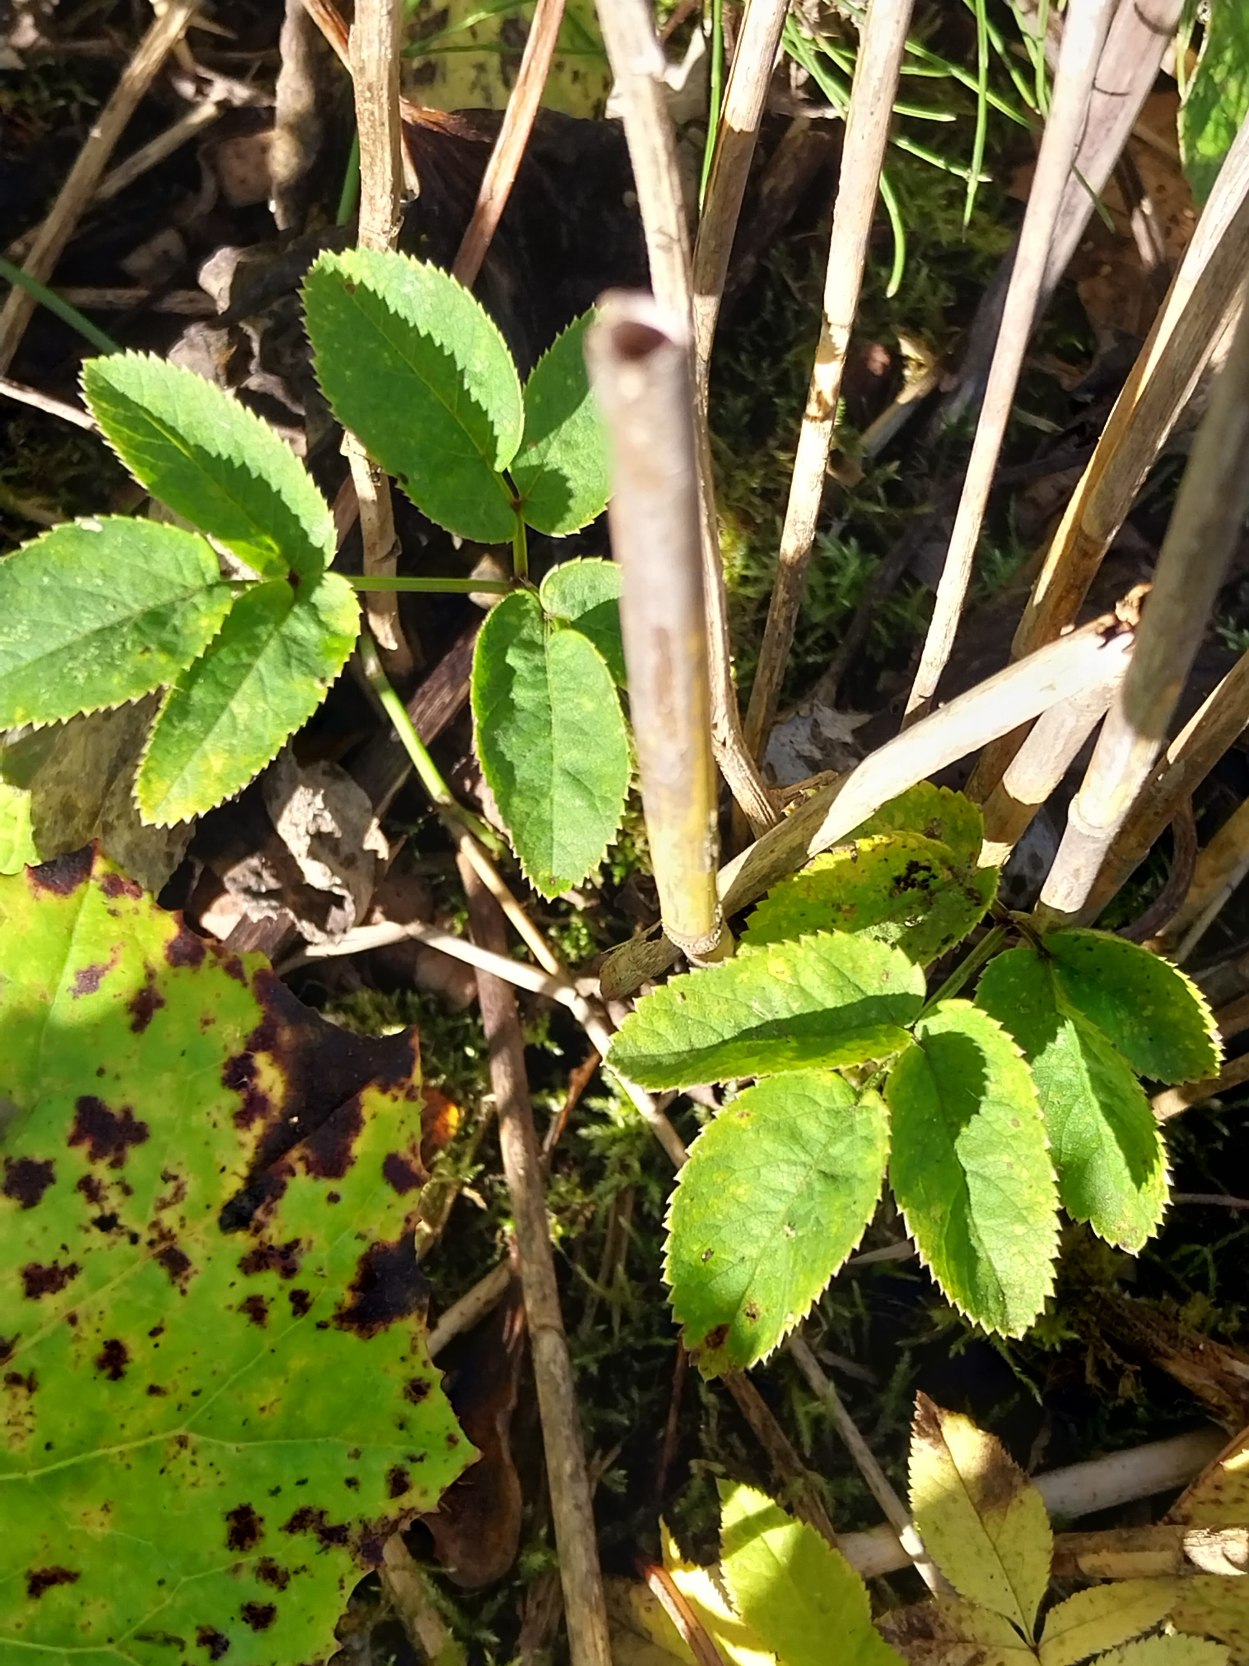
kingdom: Plantae
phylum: Tracheophyta
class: Magnoliopsida
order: Apiales
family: Apiaceae
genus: Angelica
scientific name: Angelica sylvestris
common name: Angelik
